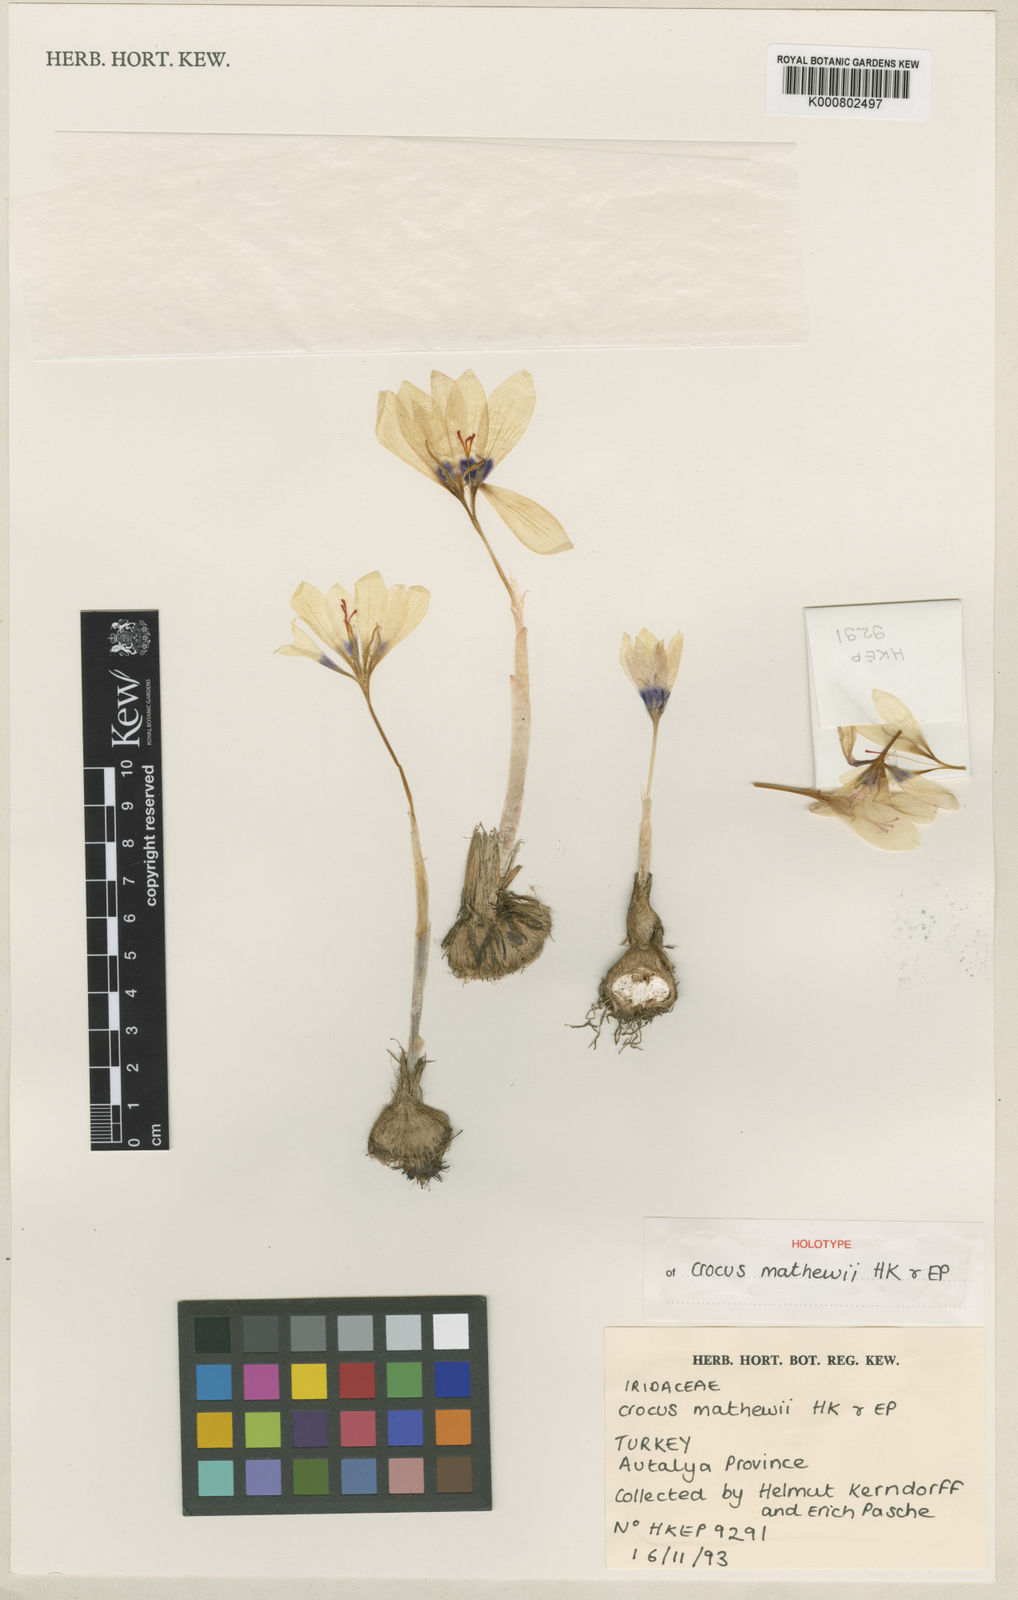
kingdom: Plantae
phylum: Tracheophyta
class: Liliopsida
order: Asparagales
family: Iridaceae
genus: Crocus
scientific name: Crocus mathewii
